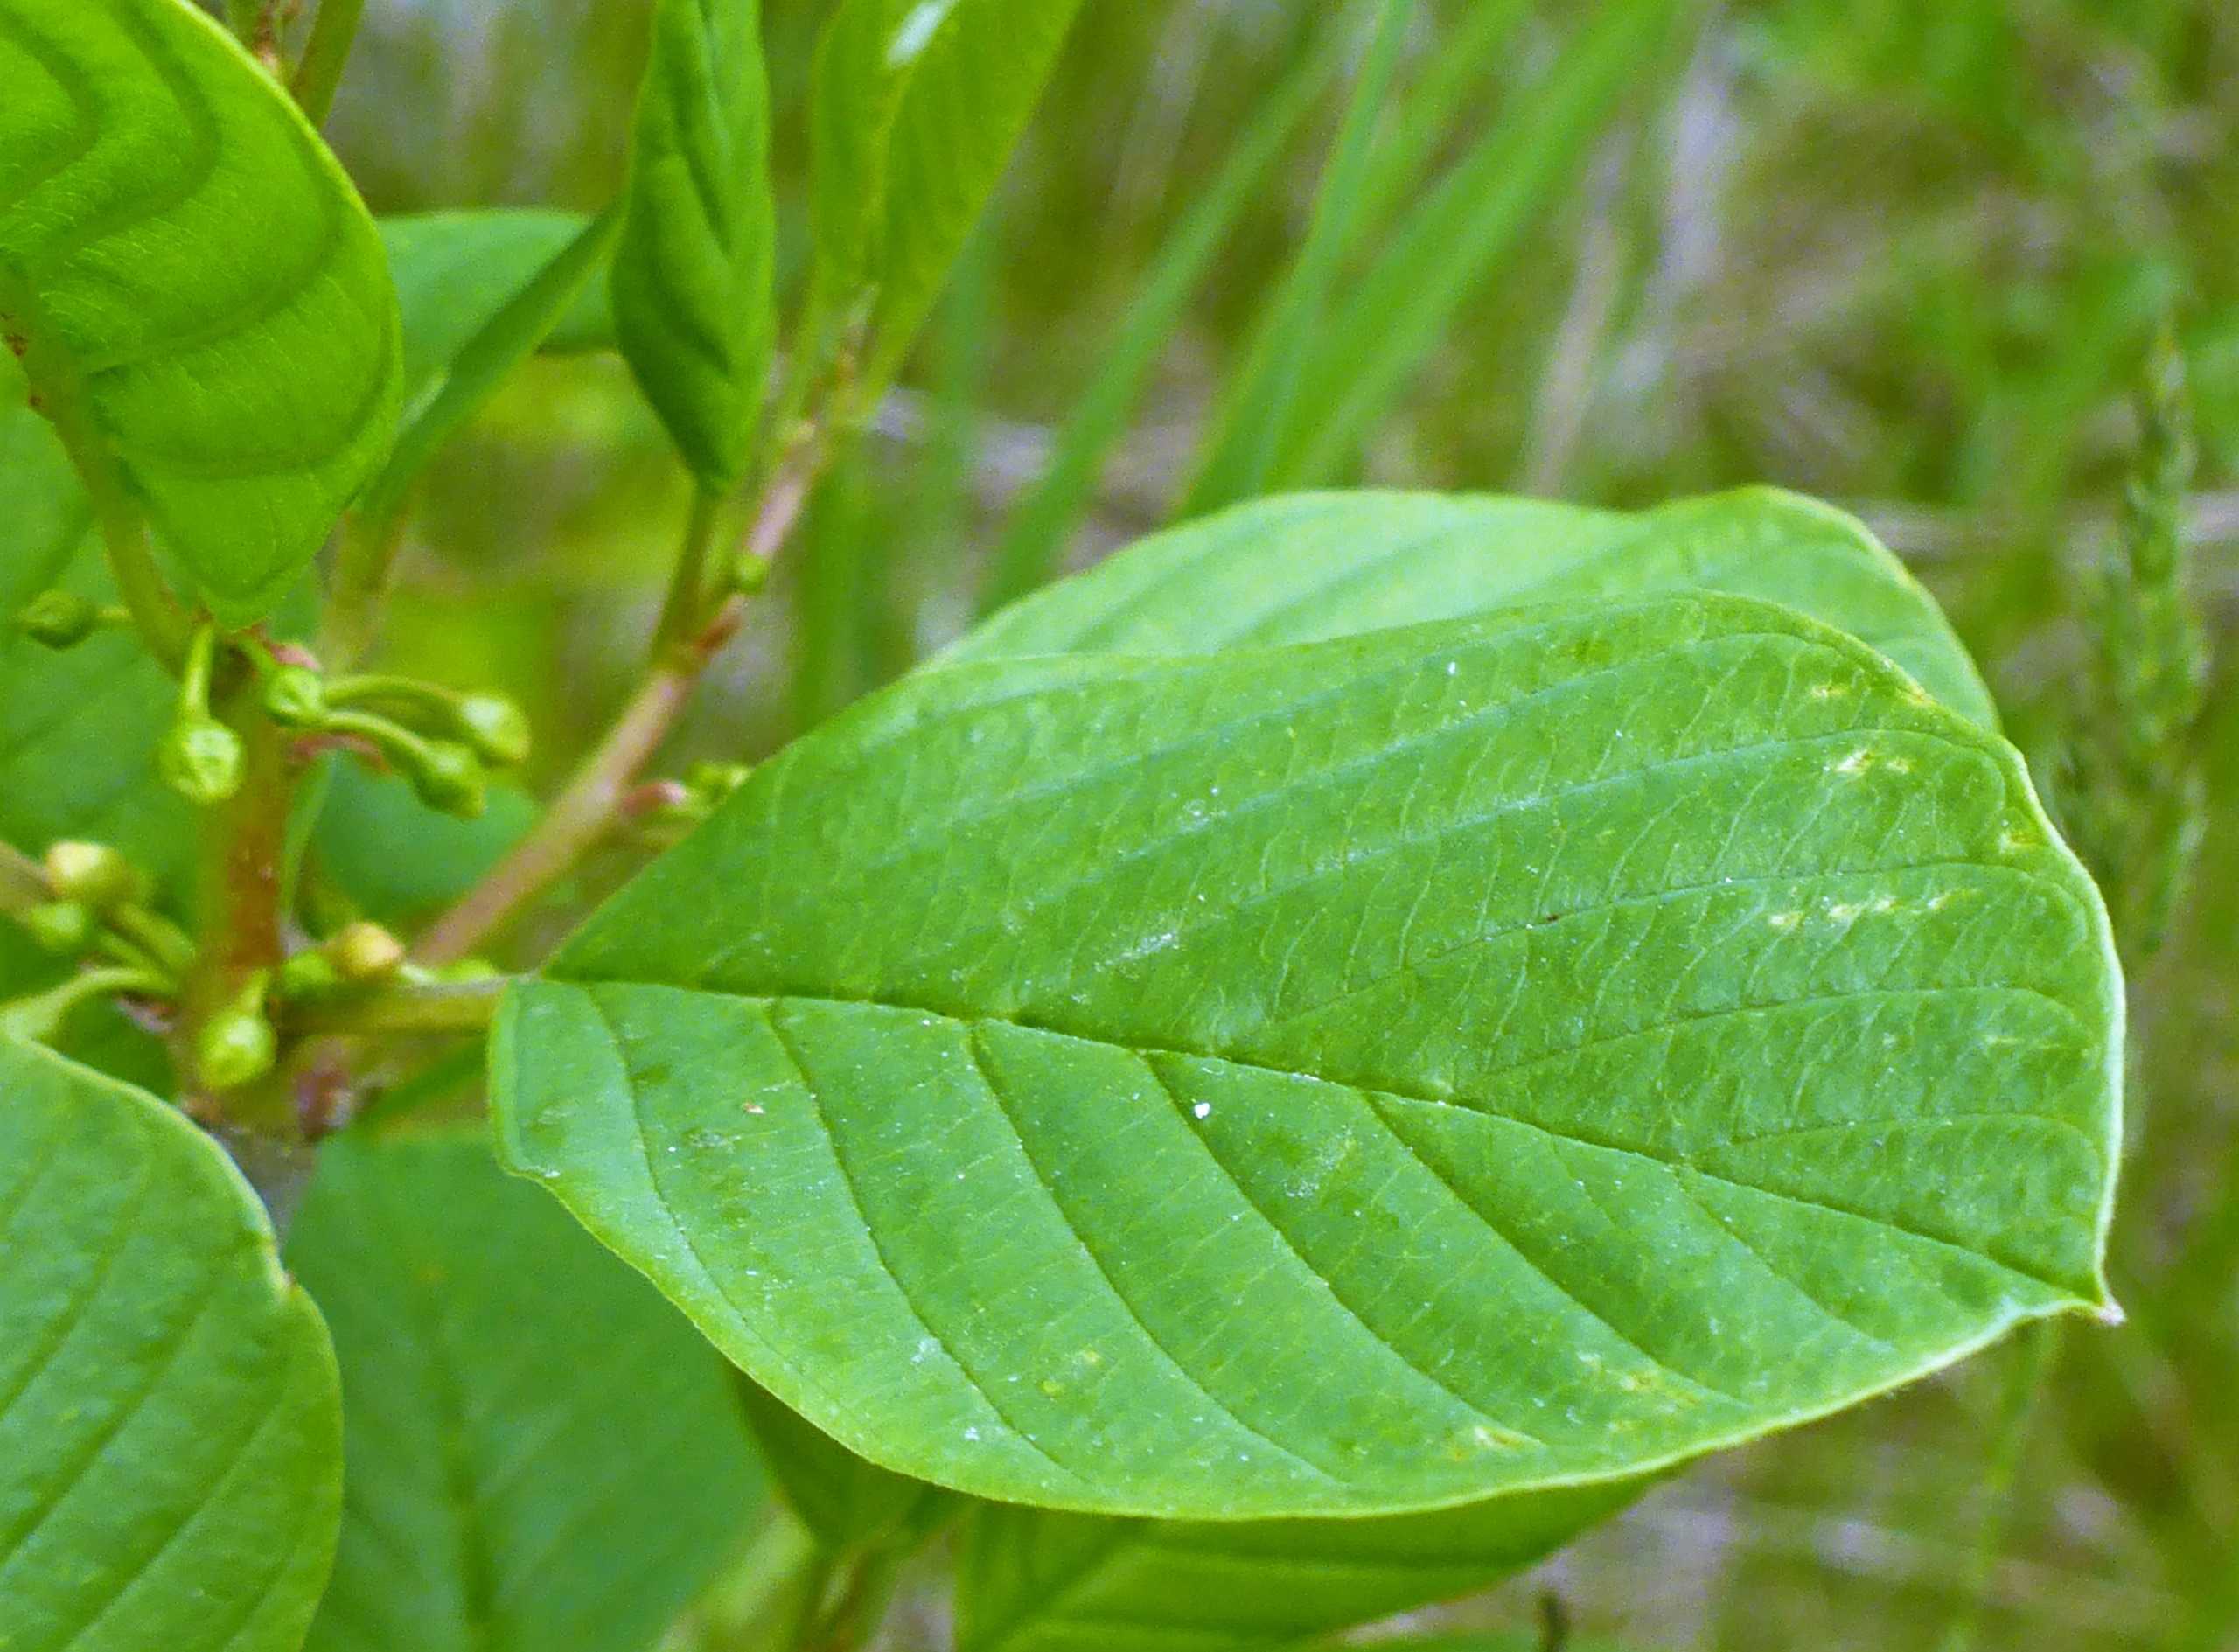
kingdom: Plantae
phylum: Tracheophyta
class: Magnoliopsida
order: Rosales
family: Rhamnaceae
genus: Frangula
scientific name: Frangula alnus
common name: Tørst
